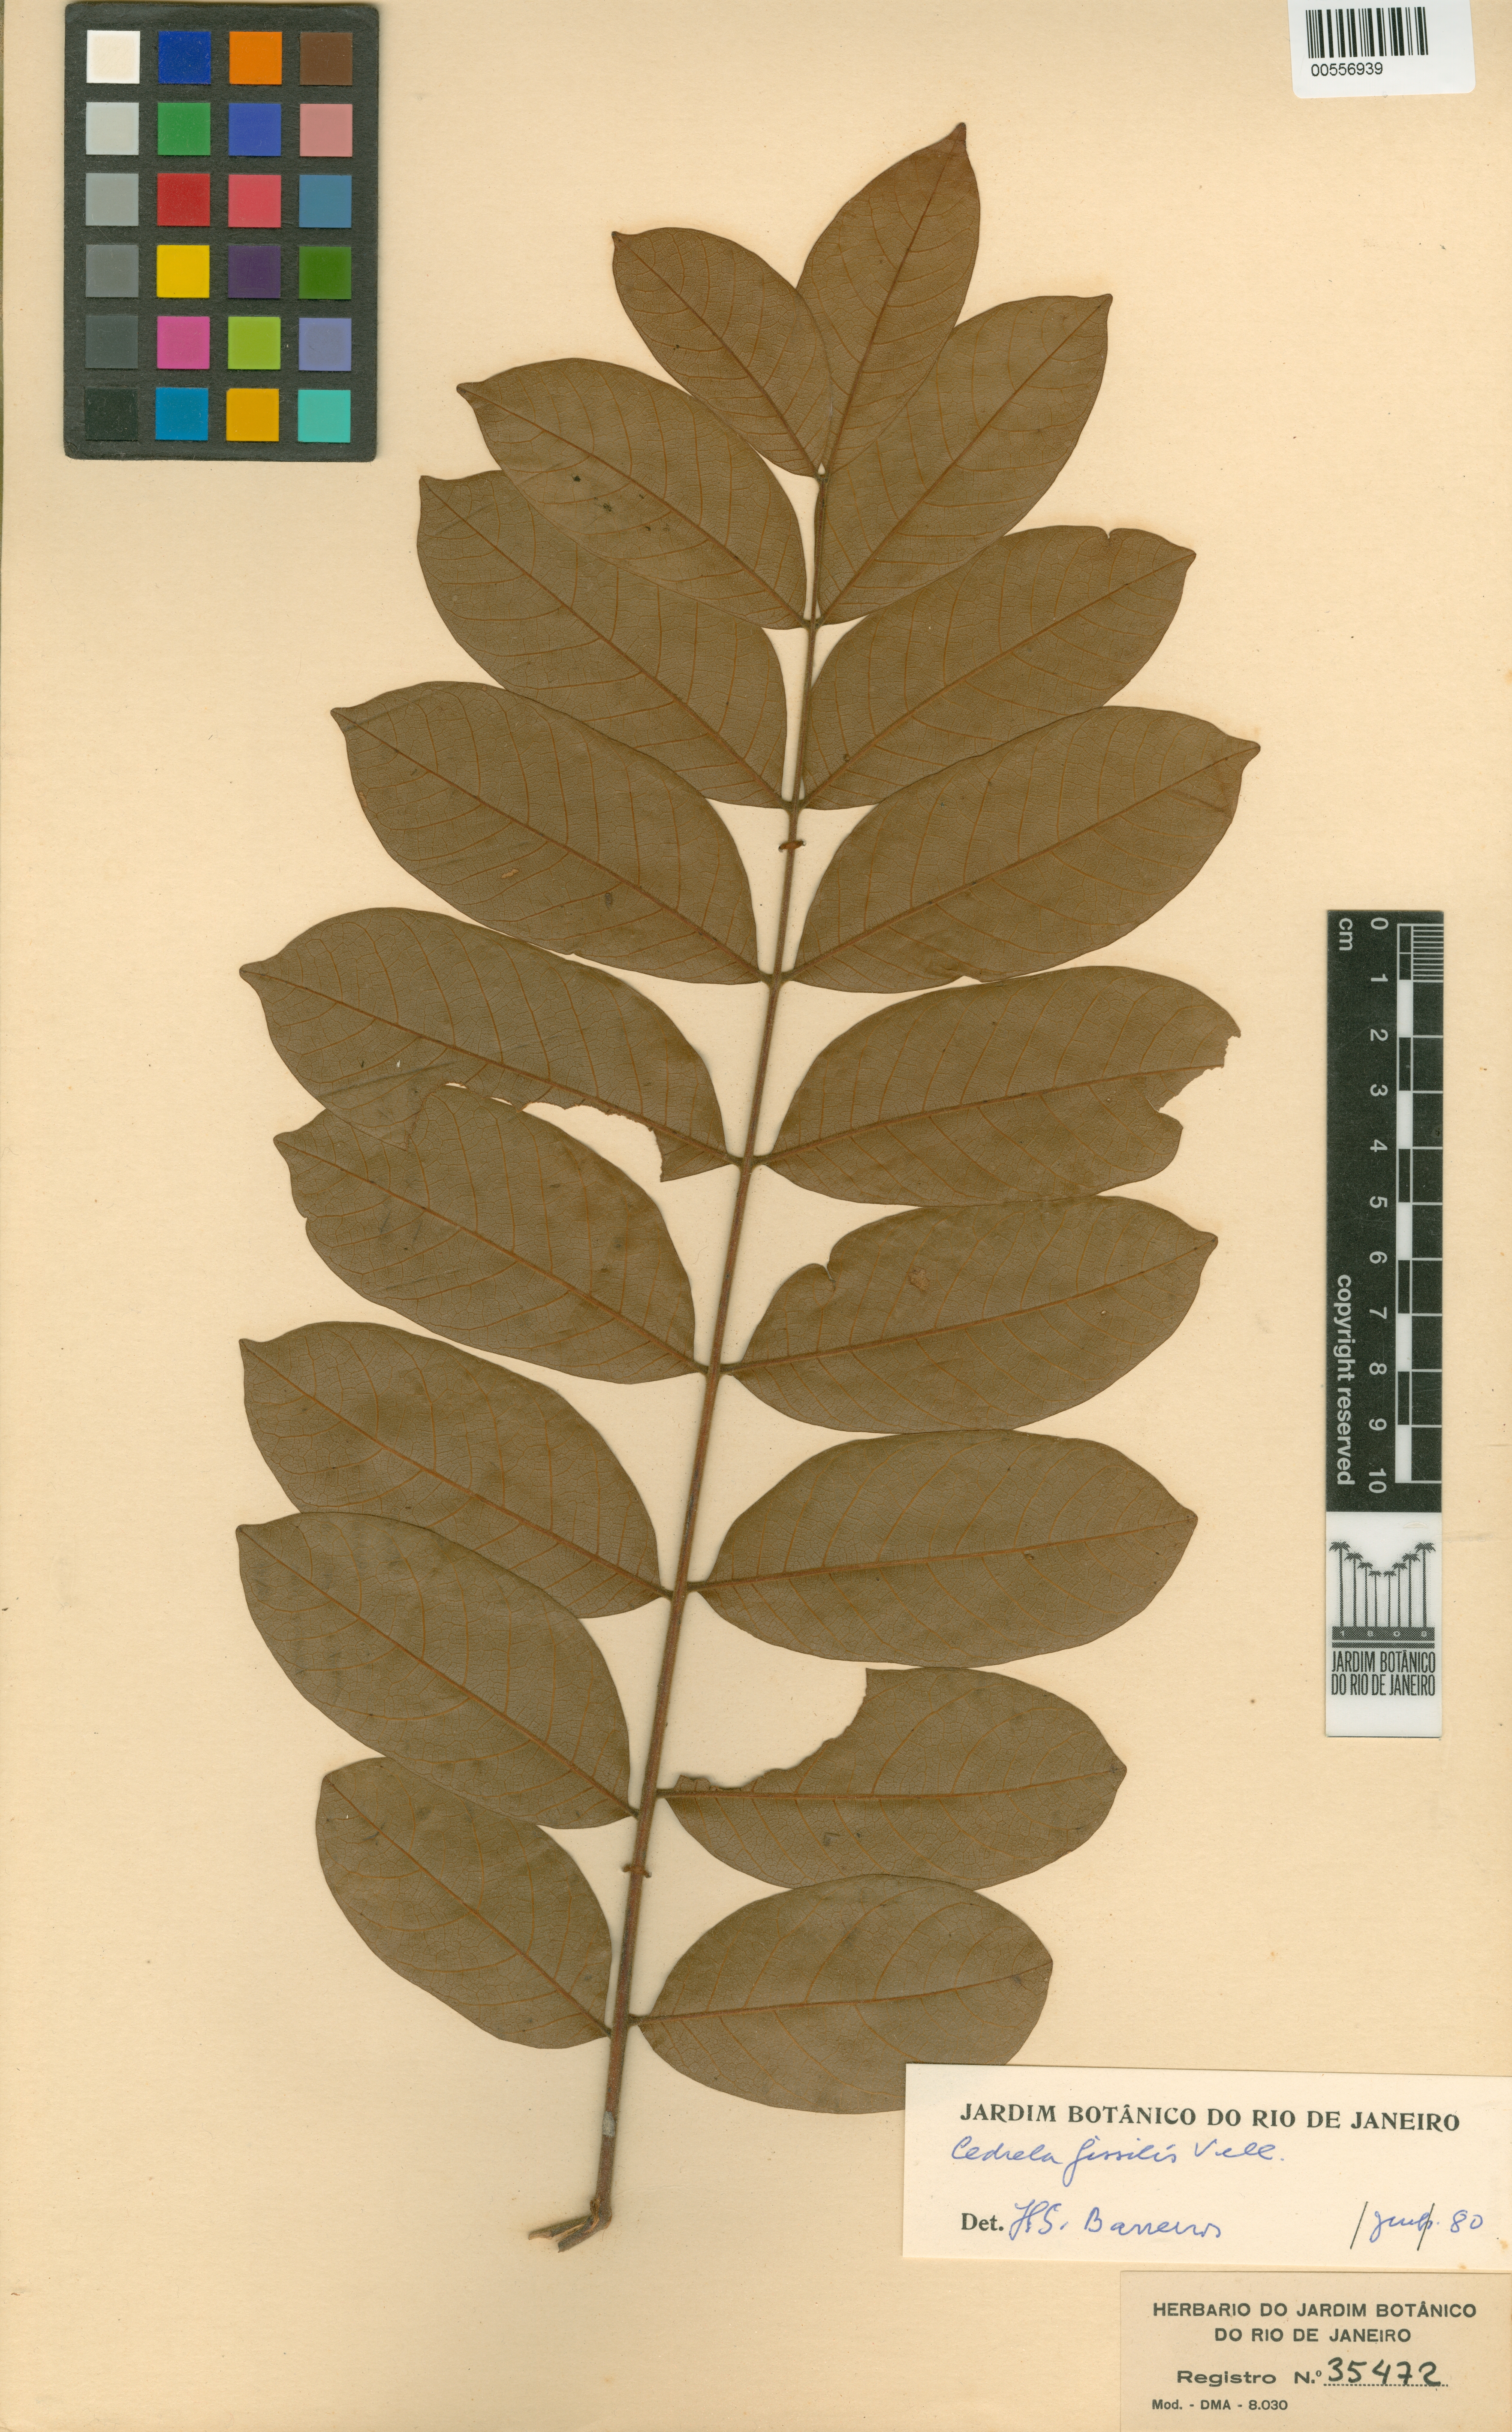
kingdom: Plantae
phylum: Tracheophyta
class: Magnoliopsida
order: Sapindales
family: Meliaceae
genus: Cedrela
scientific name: Cedrela fissilis
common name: Argentine cedar
